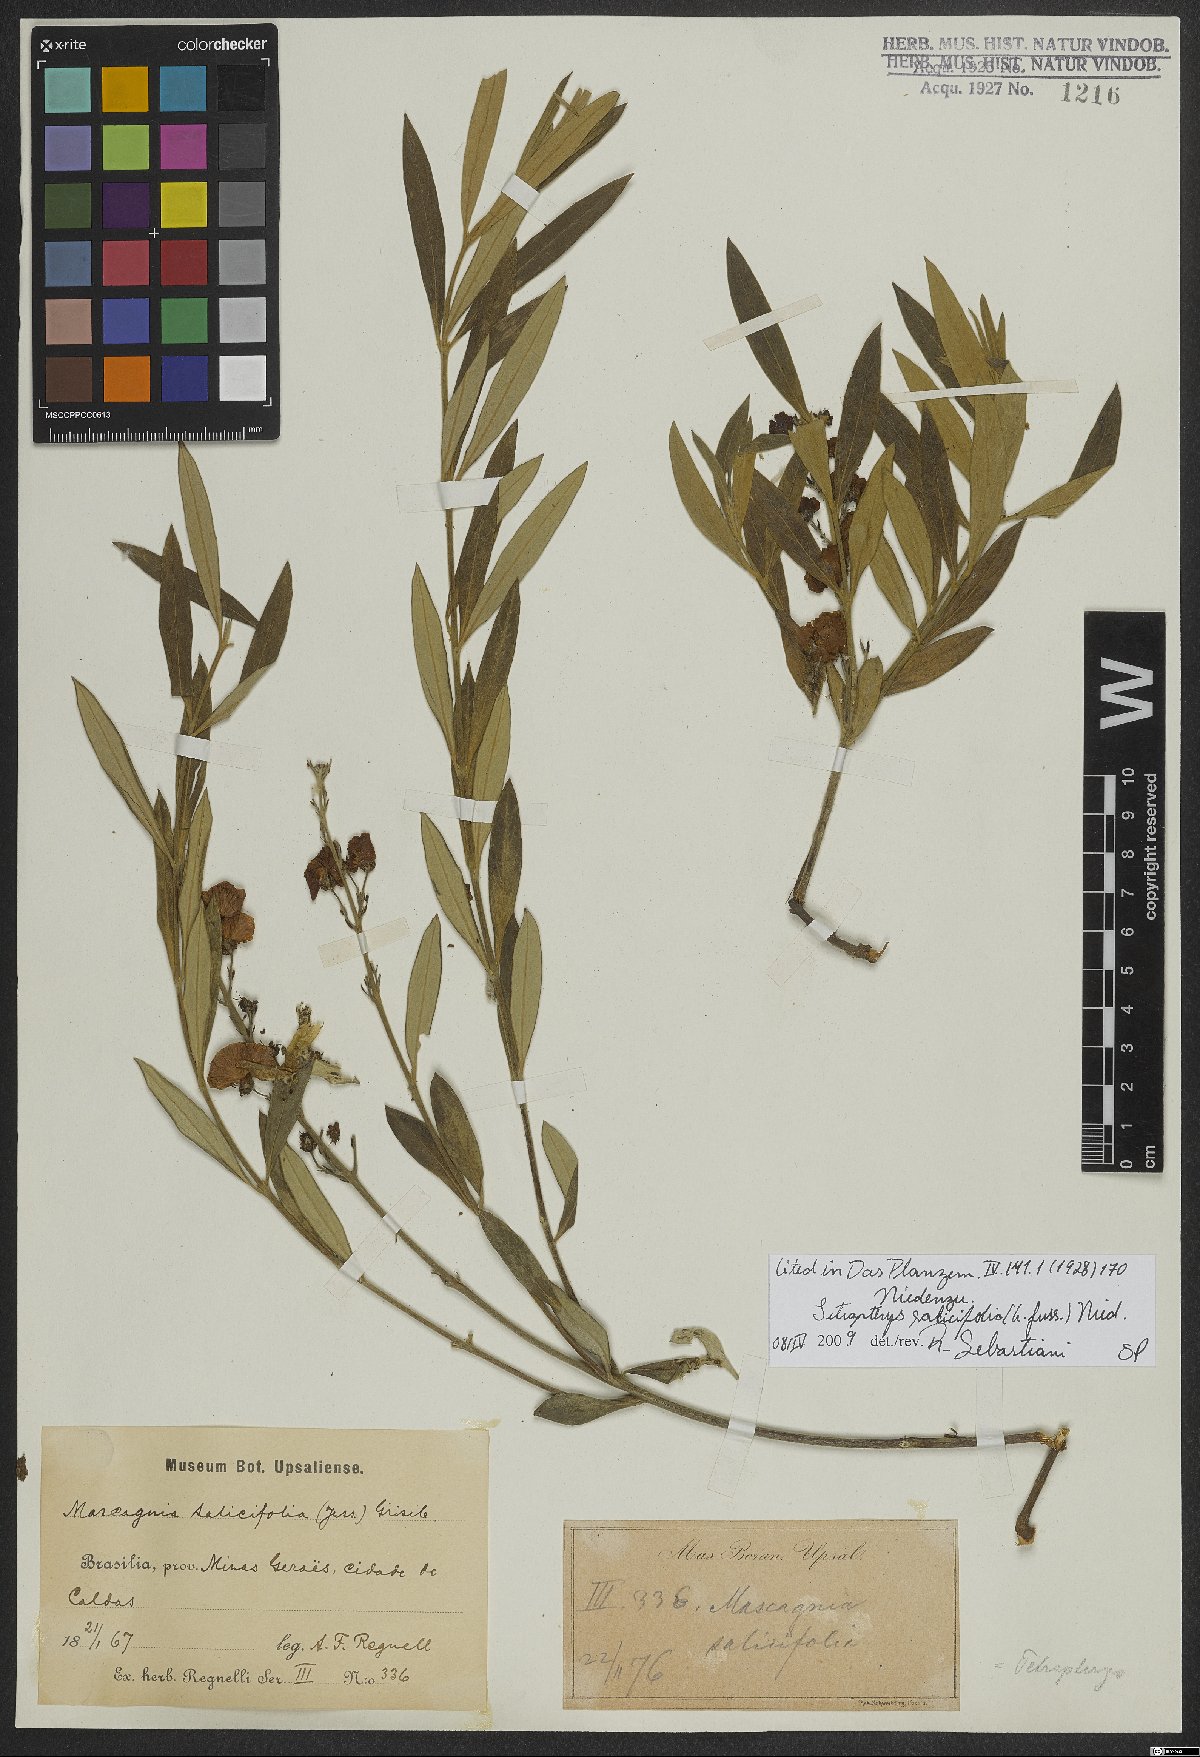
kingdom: Plantae
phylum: Tracheophyta
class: Magnoliopsida
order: Malpighiales
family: Malpighiaceae
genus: Glicophyllum
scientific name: Glicophyllum salicifolium
